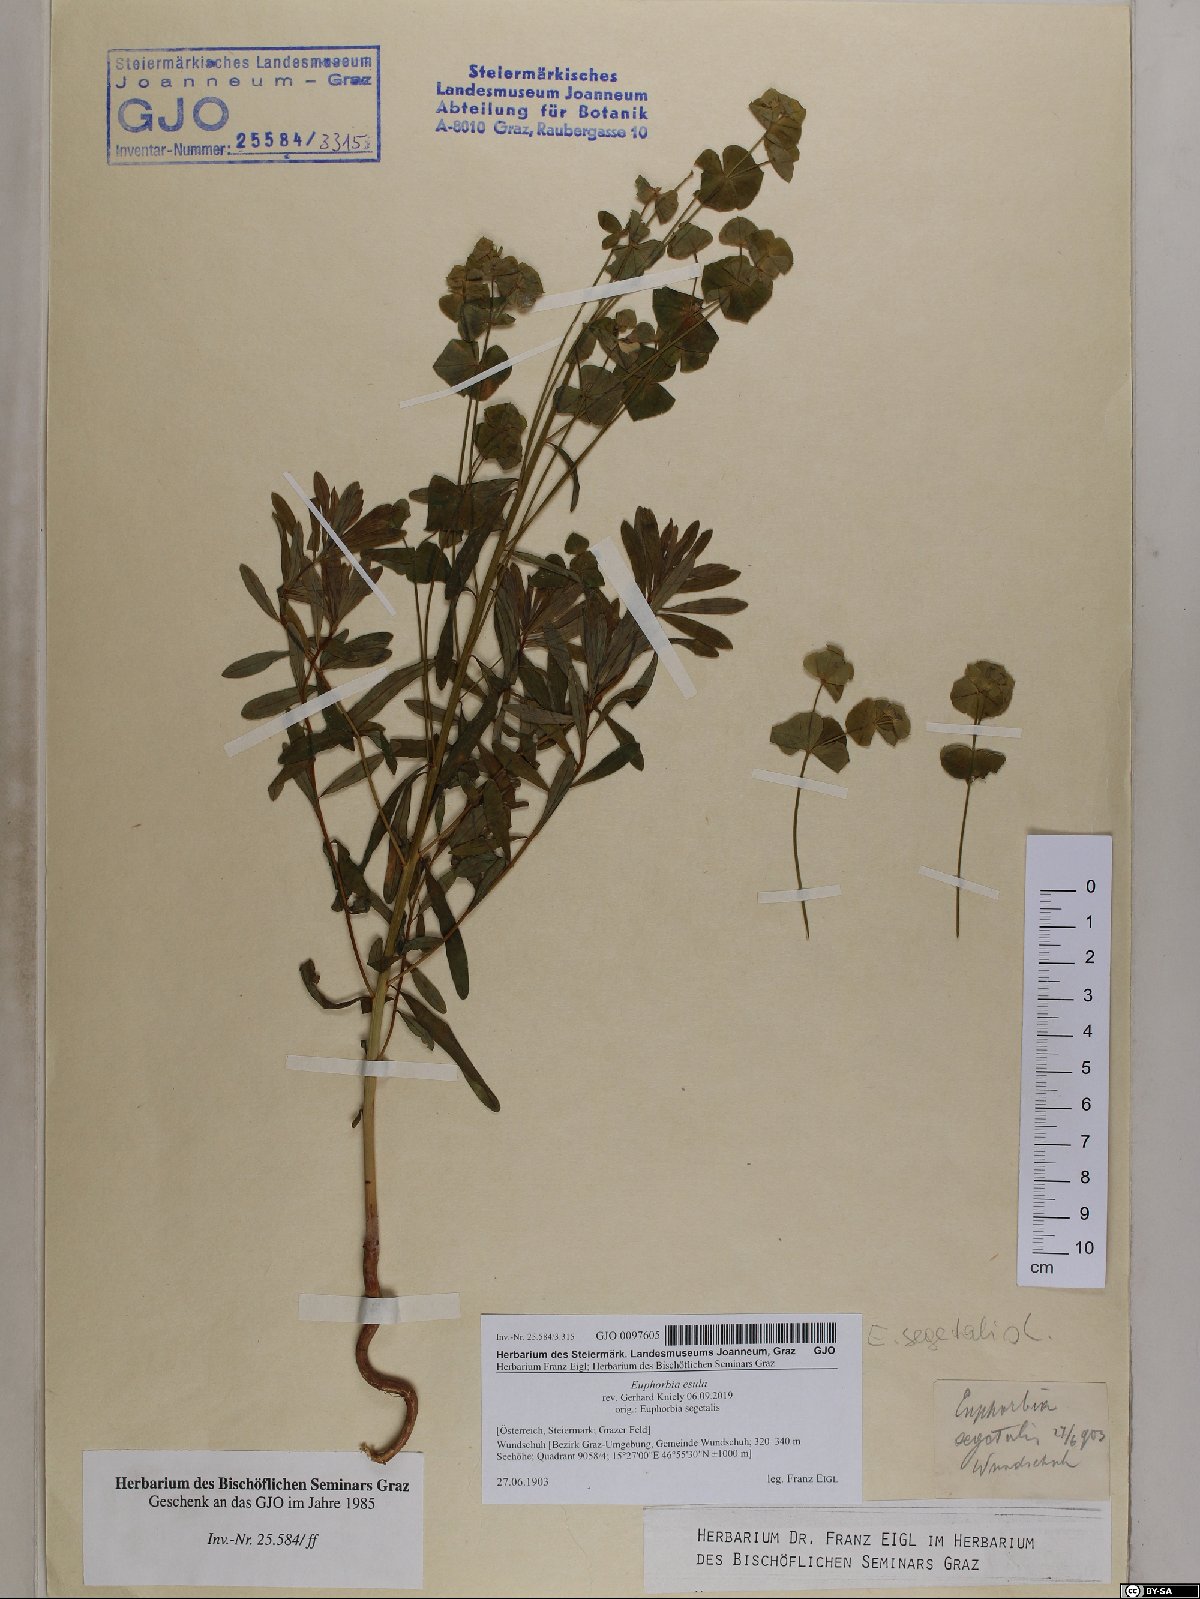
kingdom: Plantae
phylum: Tracheophyta
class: Magnoliopsida
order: Malpighiales
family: Euphorbiaceae
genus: Euphorbia
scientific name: Euphorbia esula
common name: Leafy spurge
